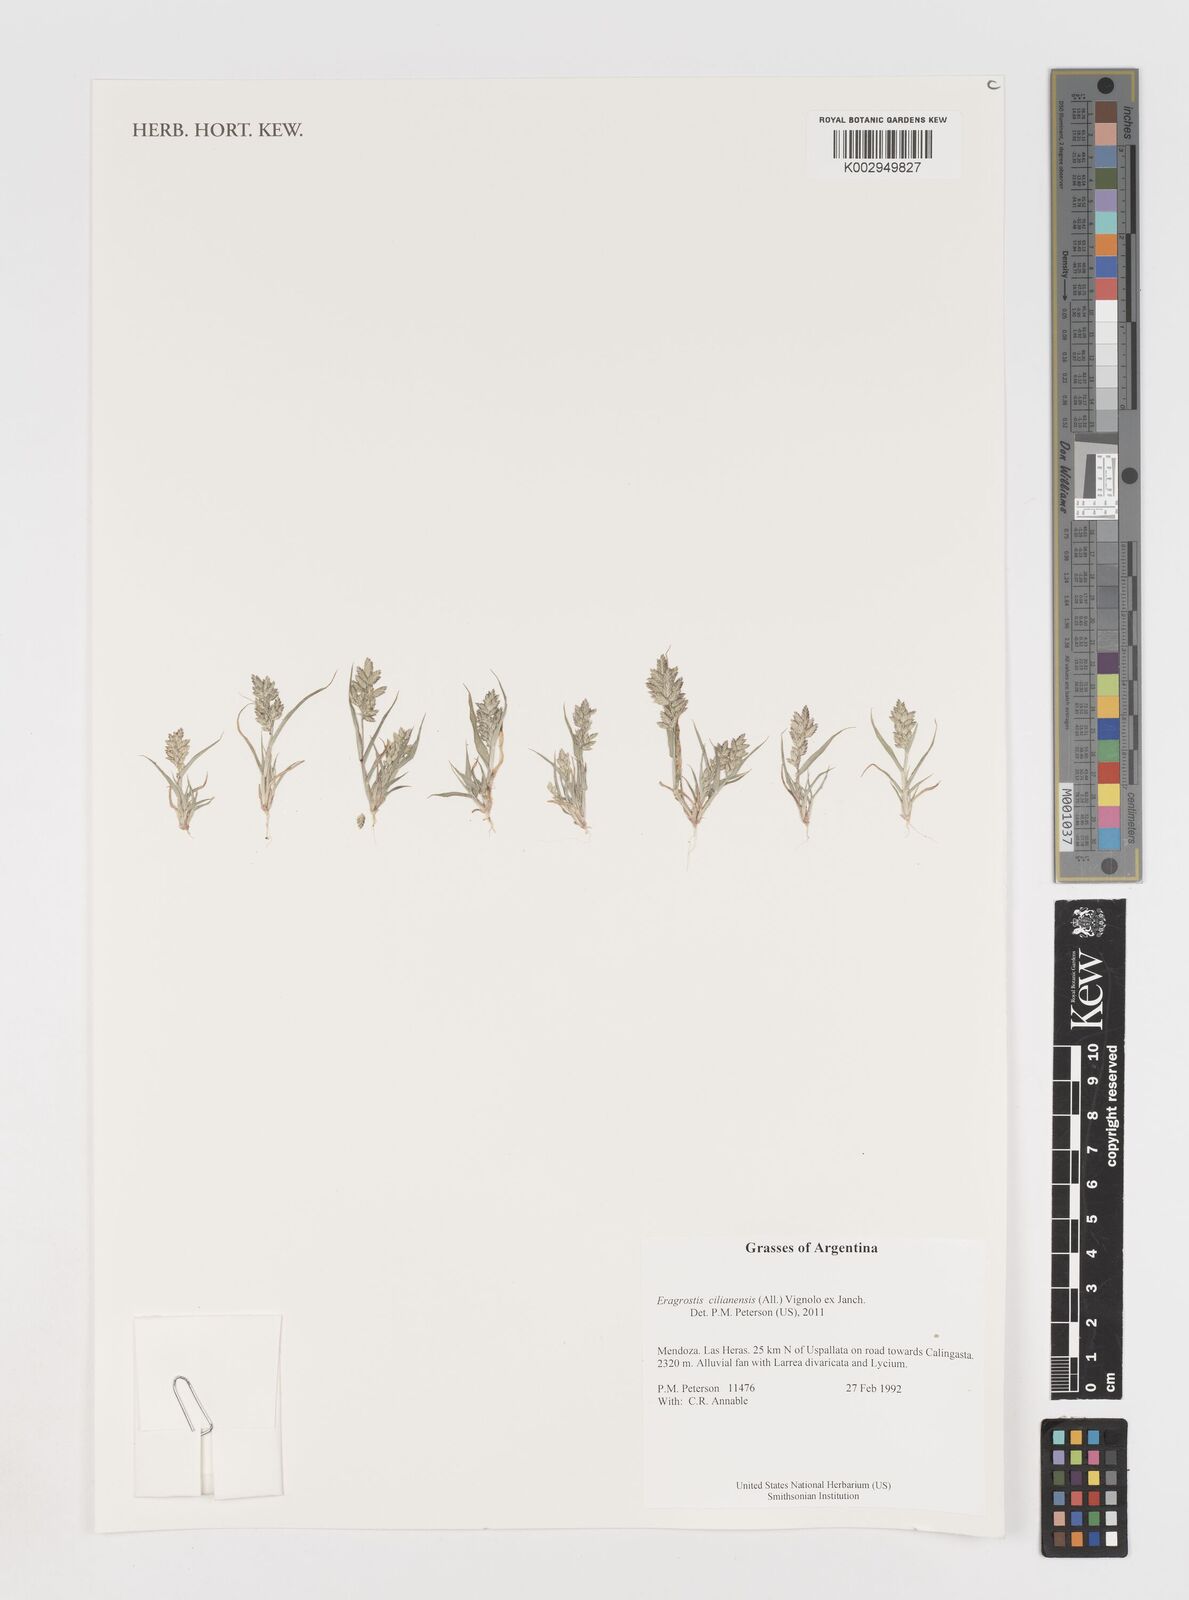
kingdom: Plantae
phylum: Tracheophyta
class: Liliopsida
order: Poales
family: Poaceae
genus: Eragrostis
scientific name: Eragrostis cilianensis
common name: Stinkgrass
